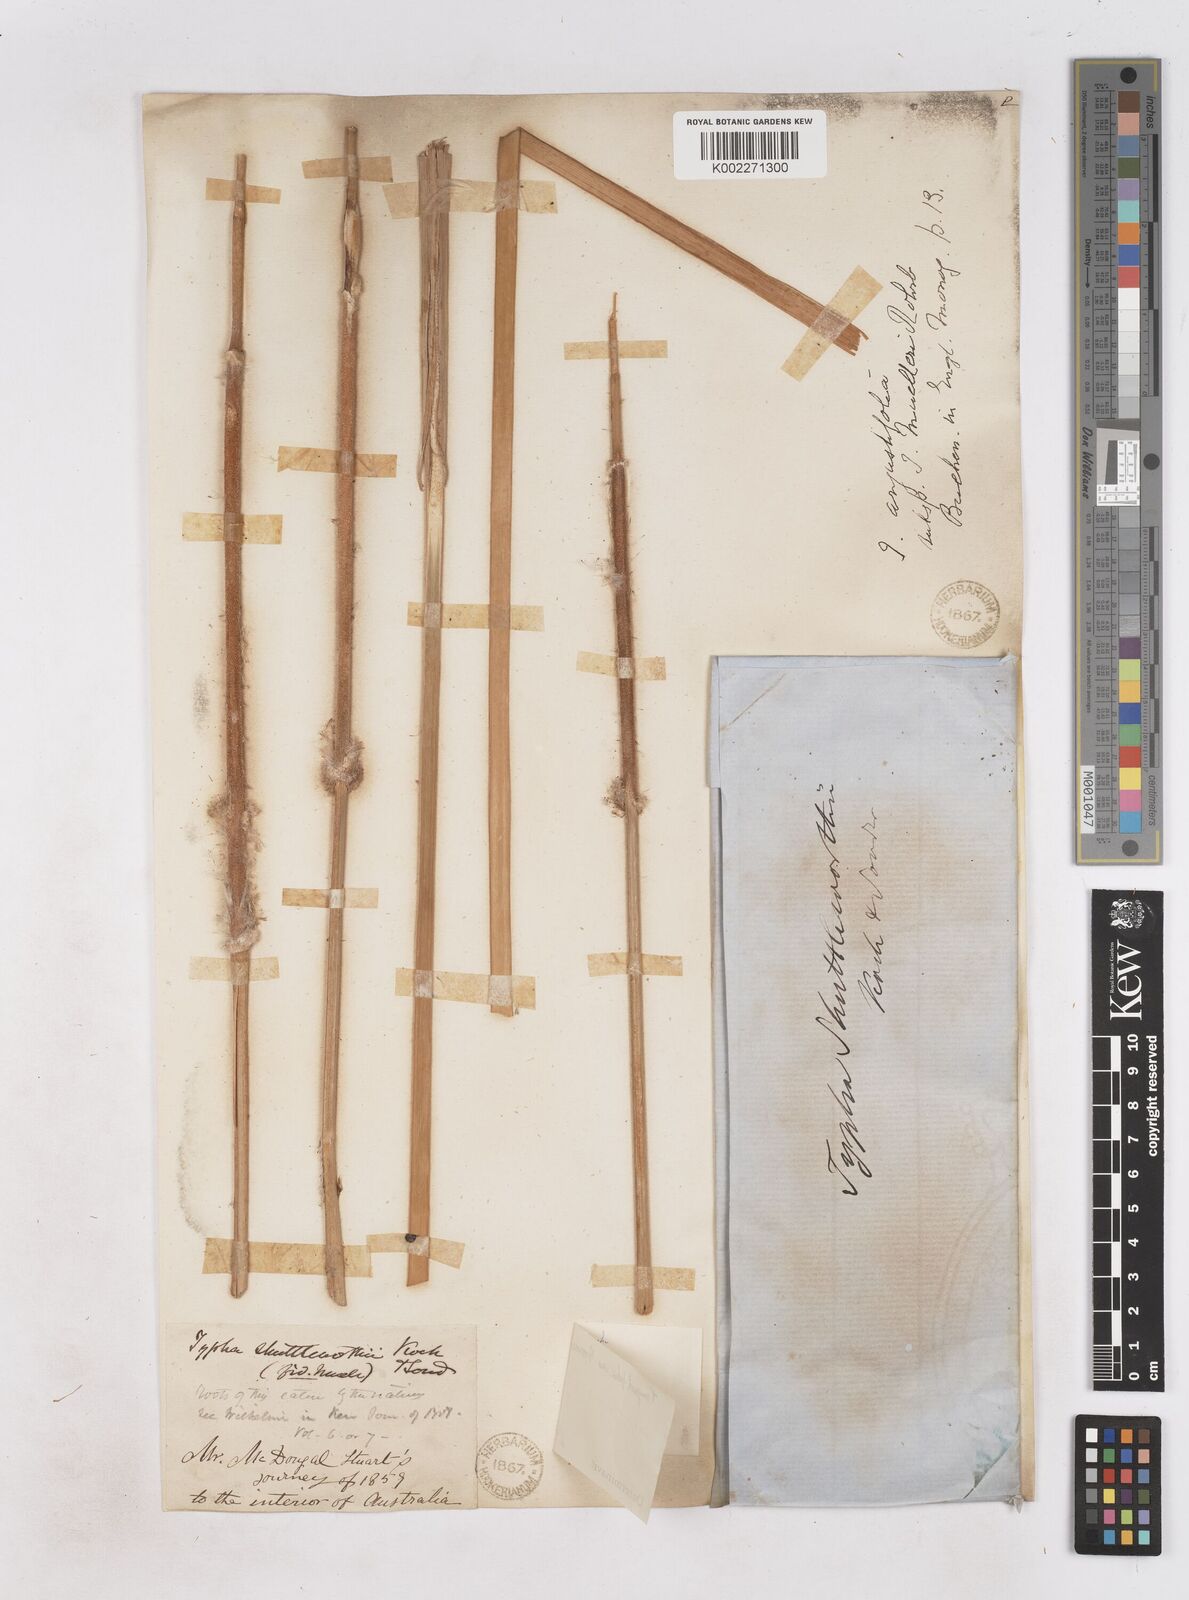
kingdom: Plantae
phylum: Tracheophyta
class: Liliopsida
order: Poales
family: Typhaceae
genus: Typha
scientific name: Typha domingensis
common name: Southern cattail
